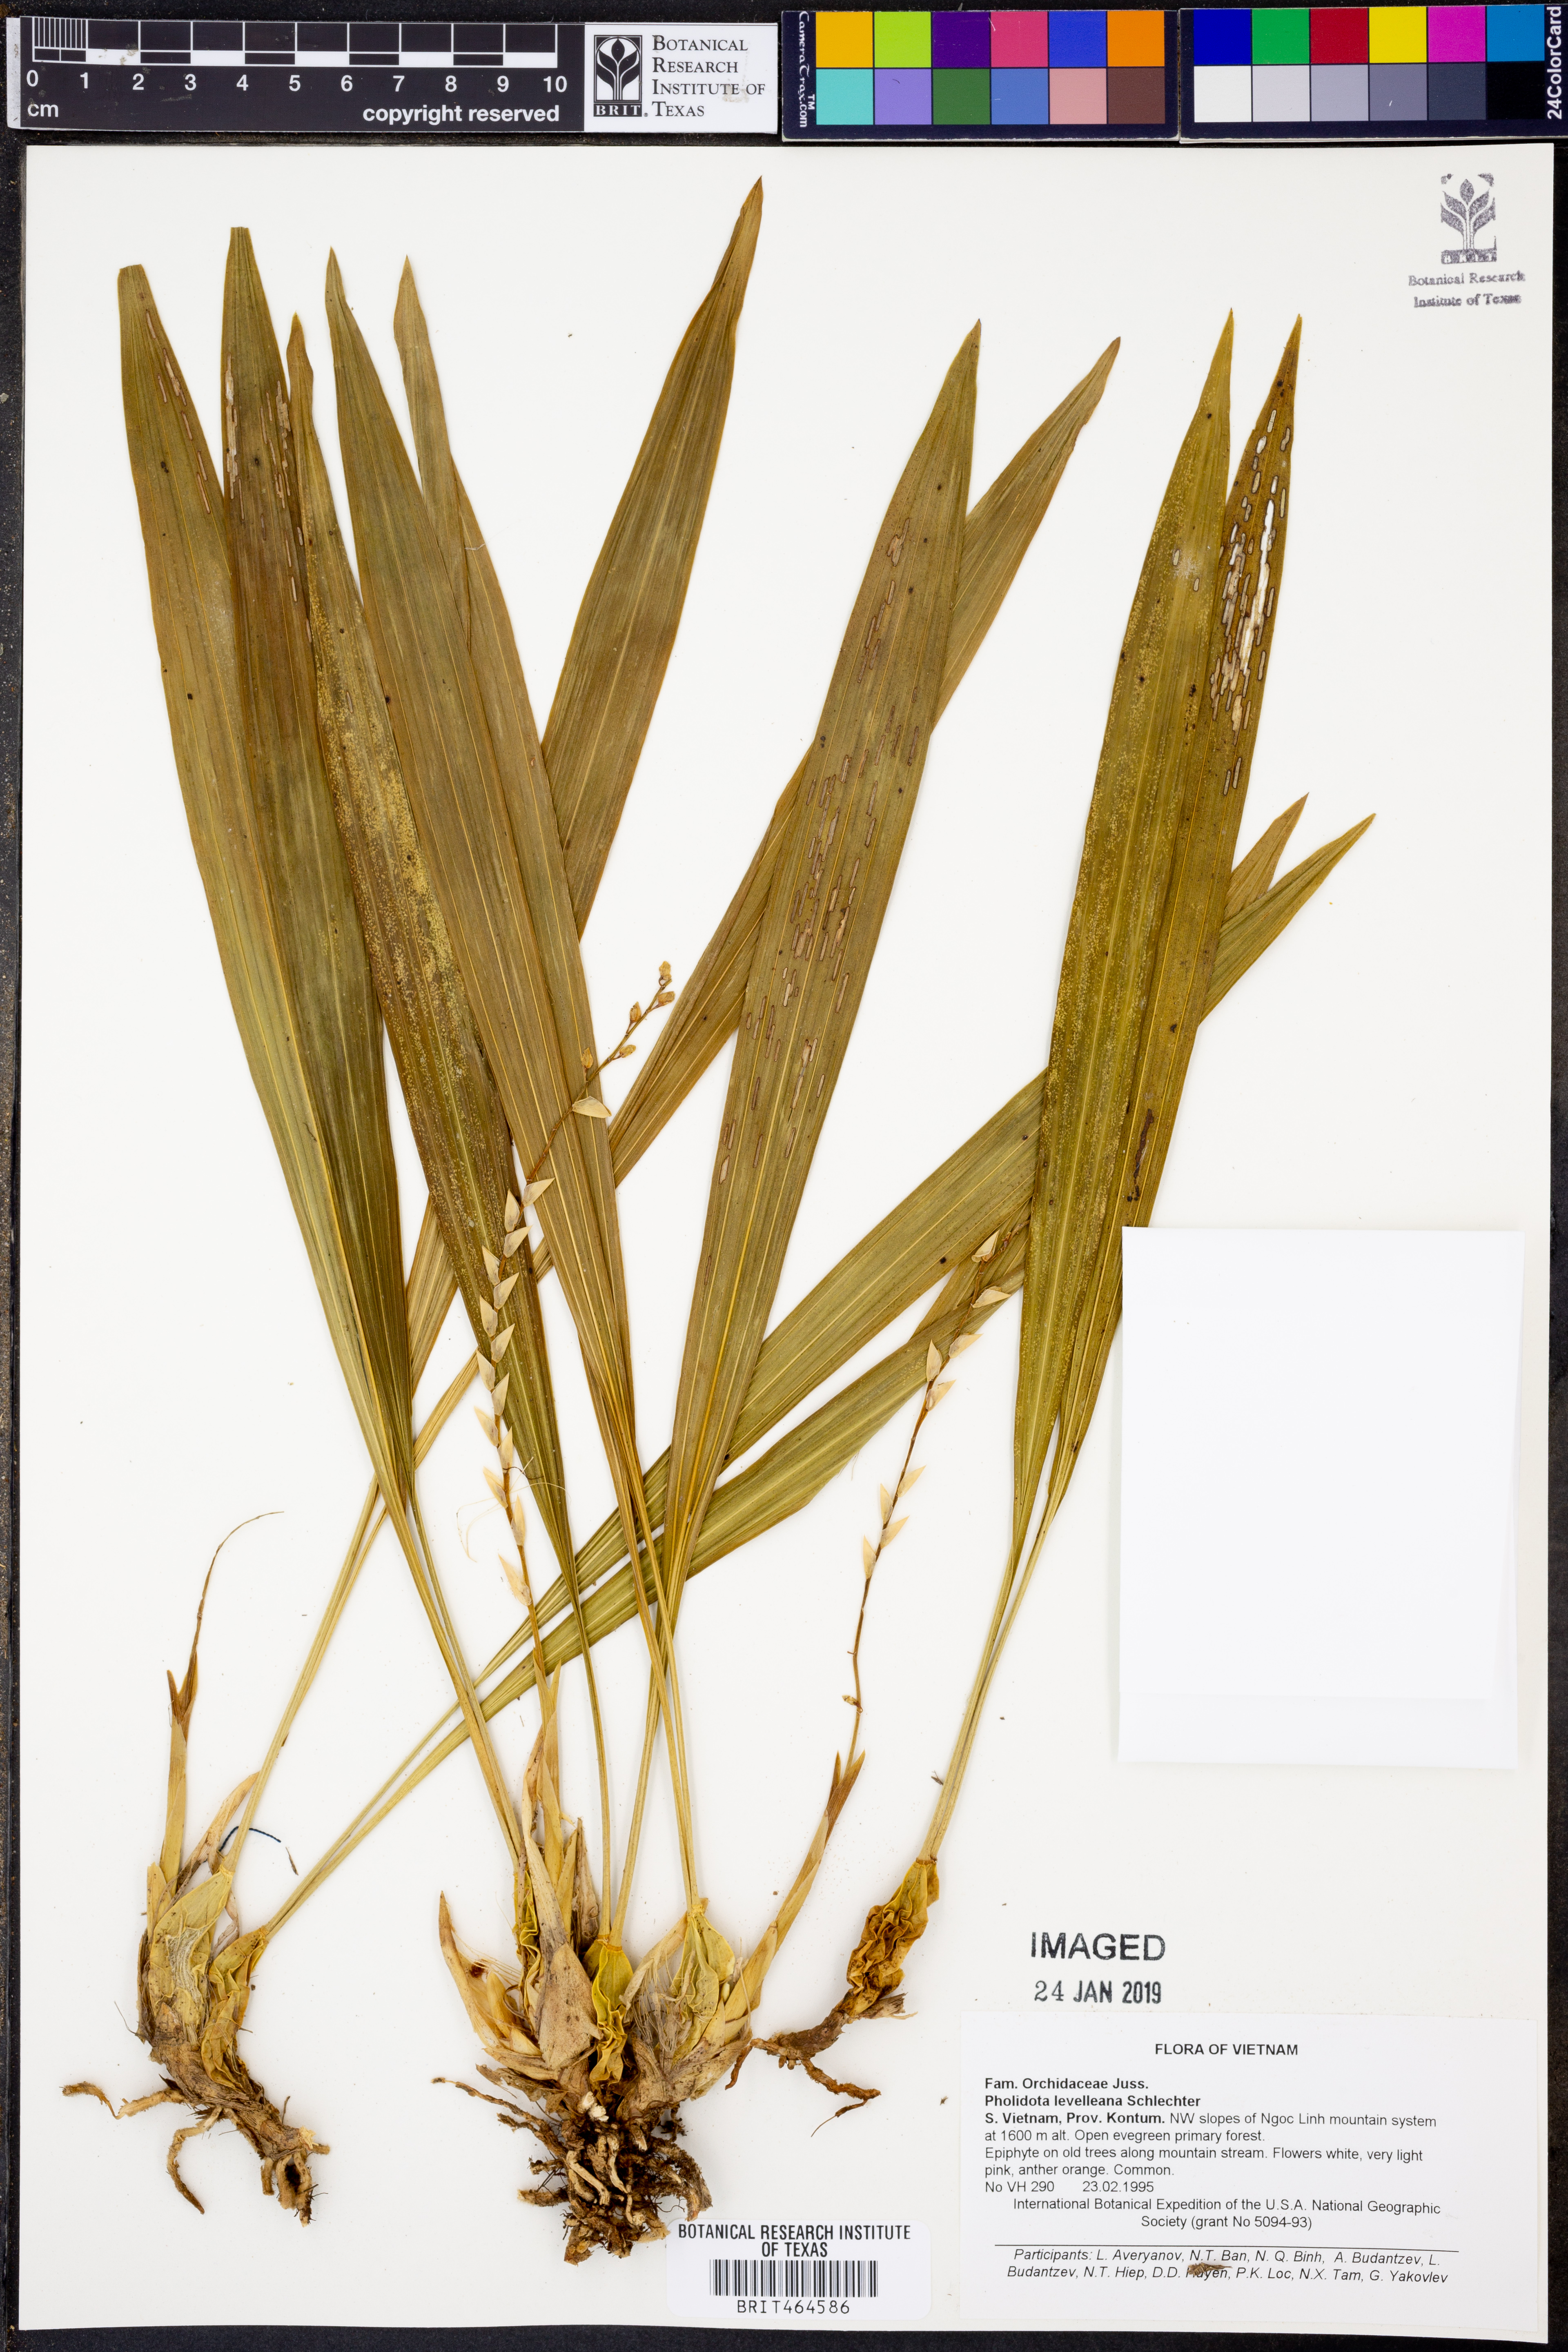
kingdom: Plantae
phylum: Tracheophyta
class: Liliopsida
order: Asparagales
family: Orchidaceae
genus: Coelogyne
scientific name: Coelogyne leveilleana
